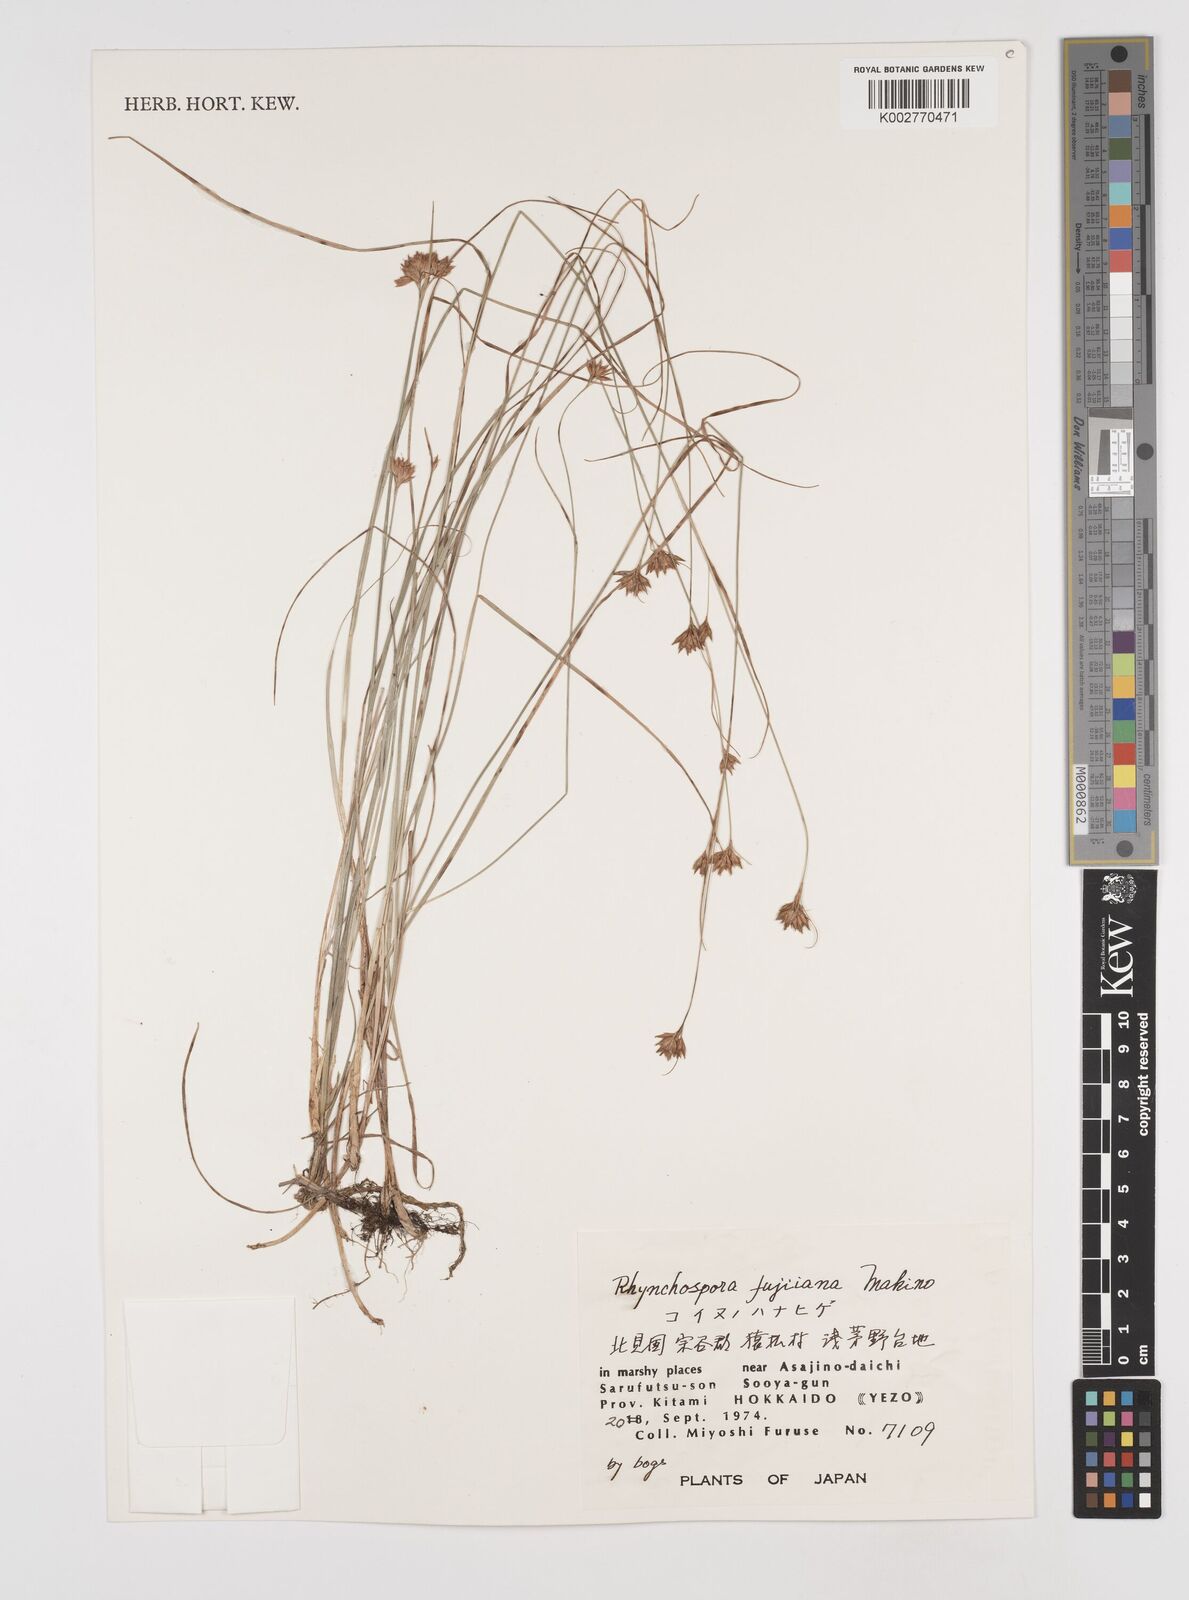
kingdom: Plantae
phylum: Tracheophyta
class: Liliopsida
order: Poales
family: Cyperaceae
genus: Rhynchospora
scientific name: Rhynchospora fujiiana
